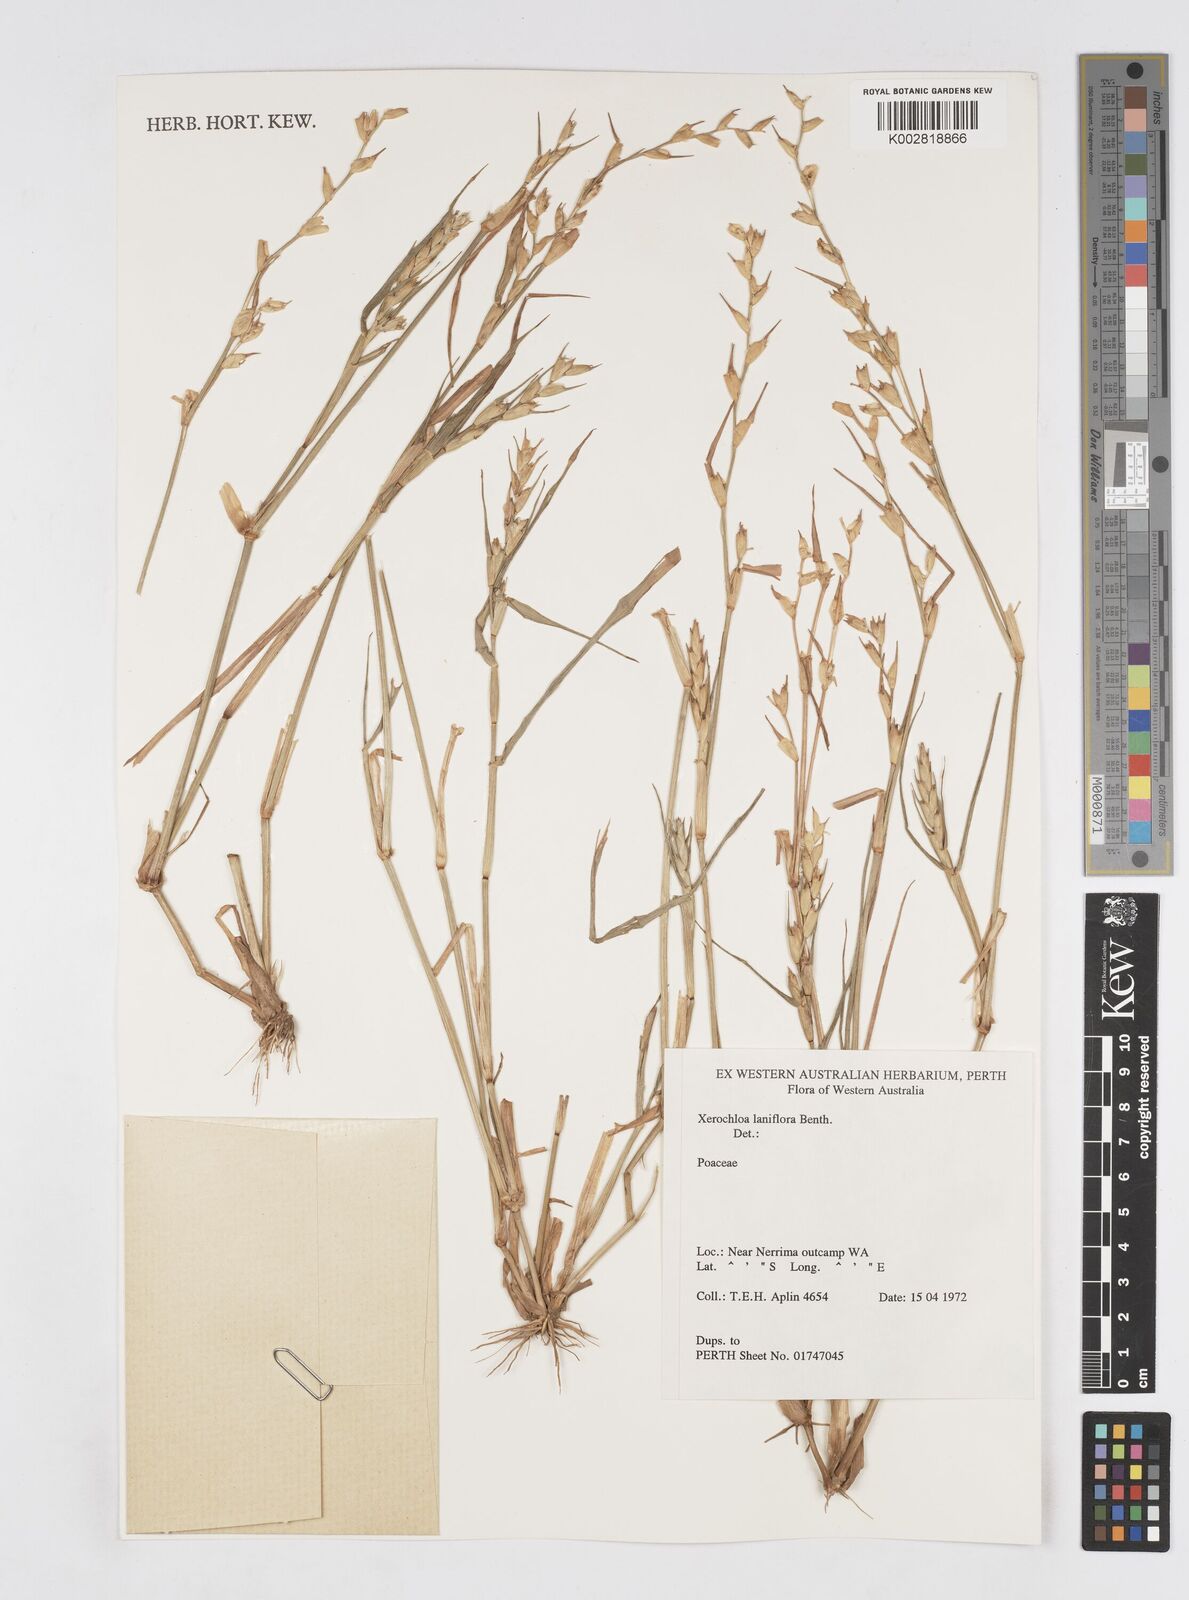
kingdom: Plantae
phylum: Tracheophyta
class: Liliopsida
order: Poales
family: Poaceae
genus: Xerochloa
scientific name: Xerochloa laniflora
